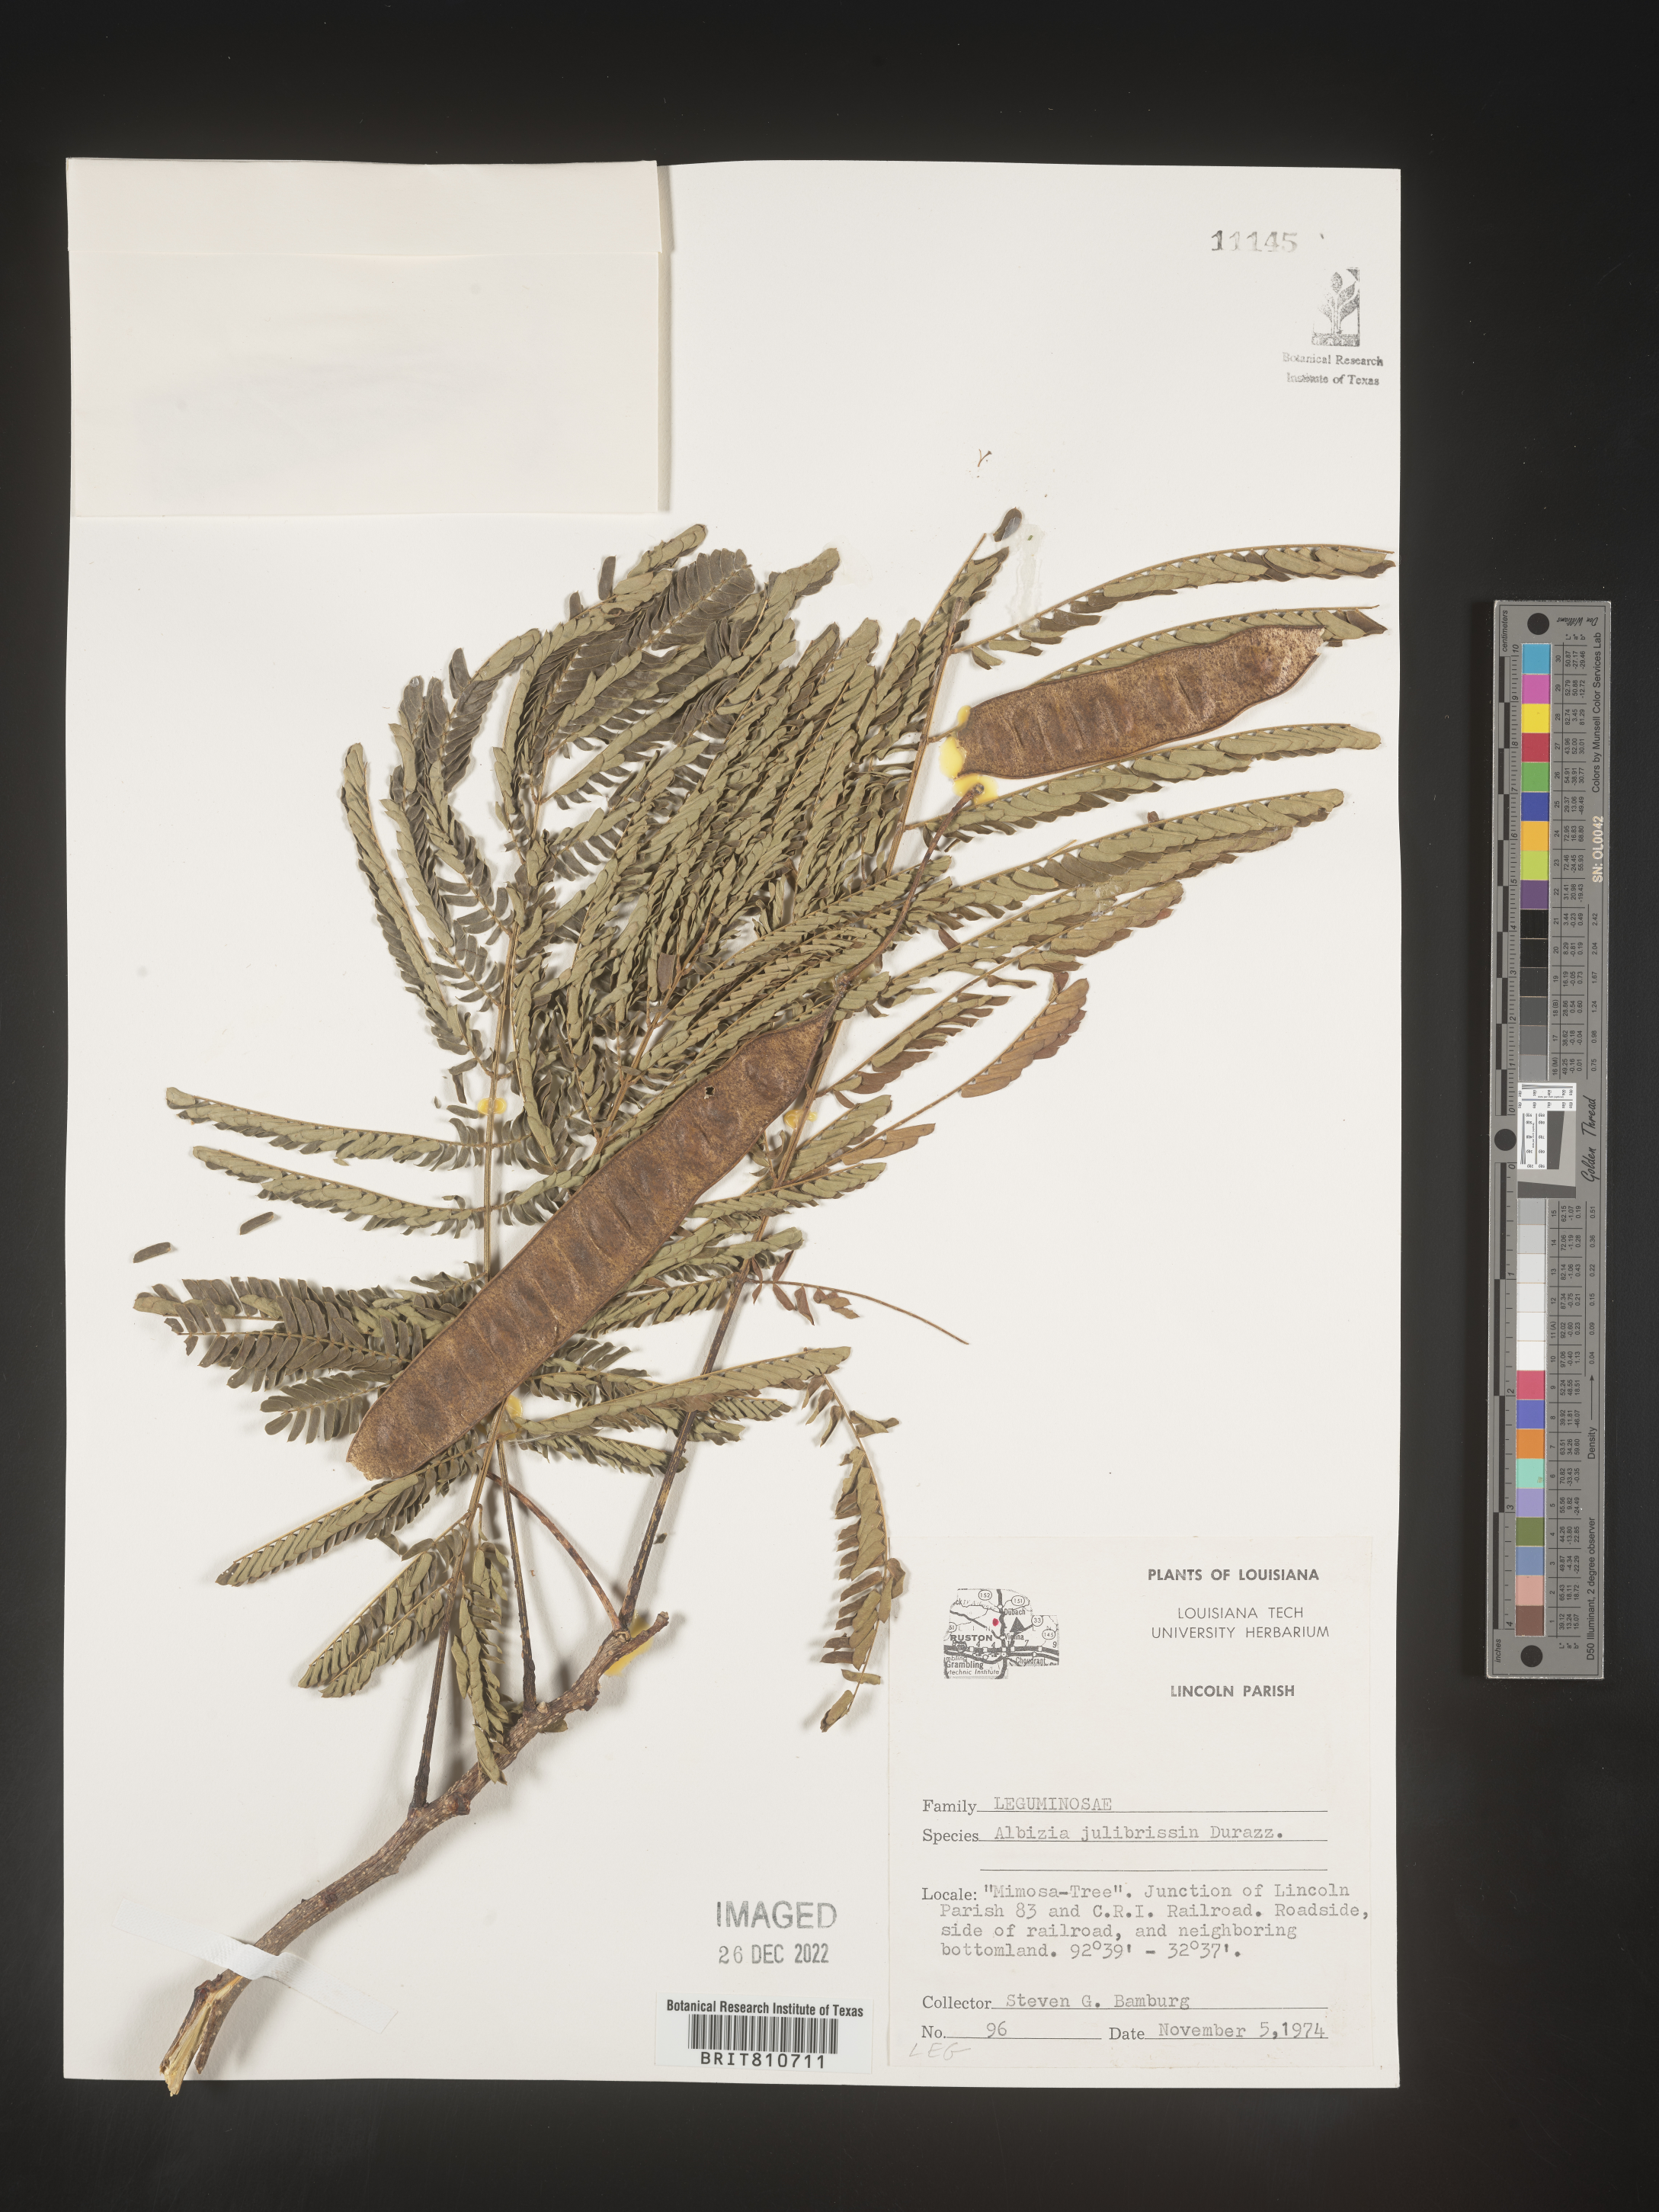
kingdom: Plantae
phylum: Tracheophyta
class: Magnoliopsida
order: Fabales
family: Fabaceae
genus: Albizia
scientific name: Albizia
